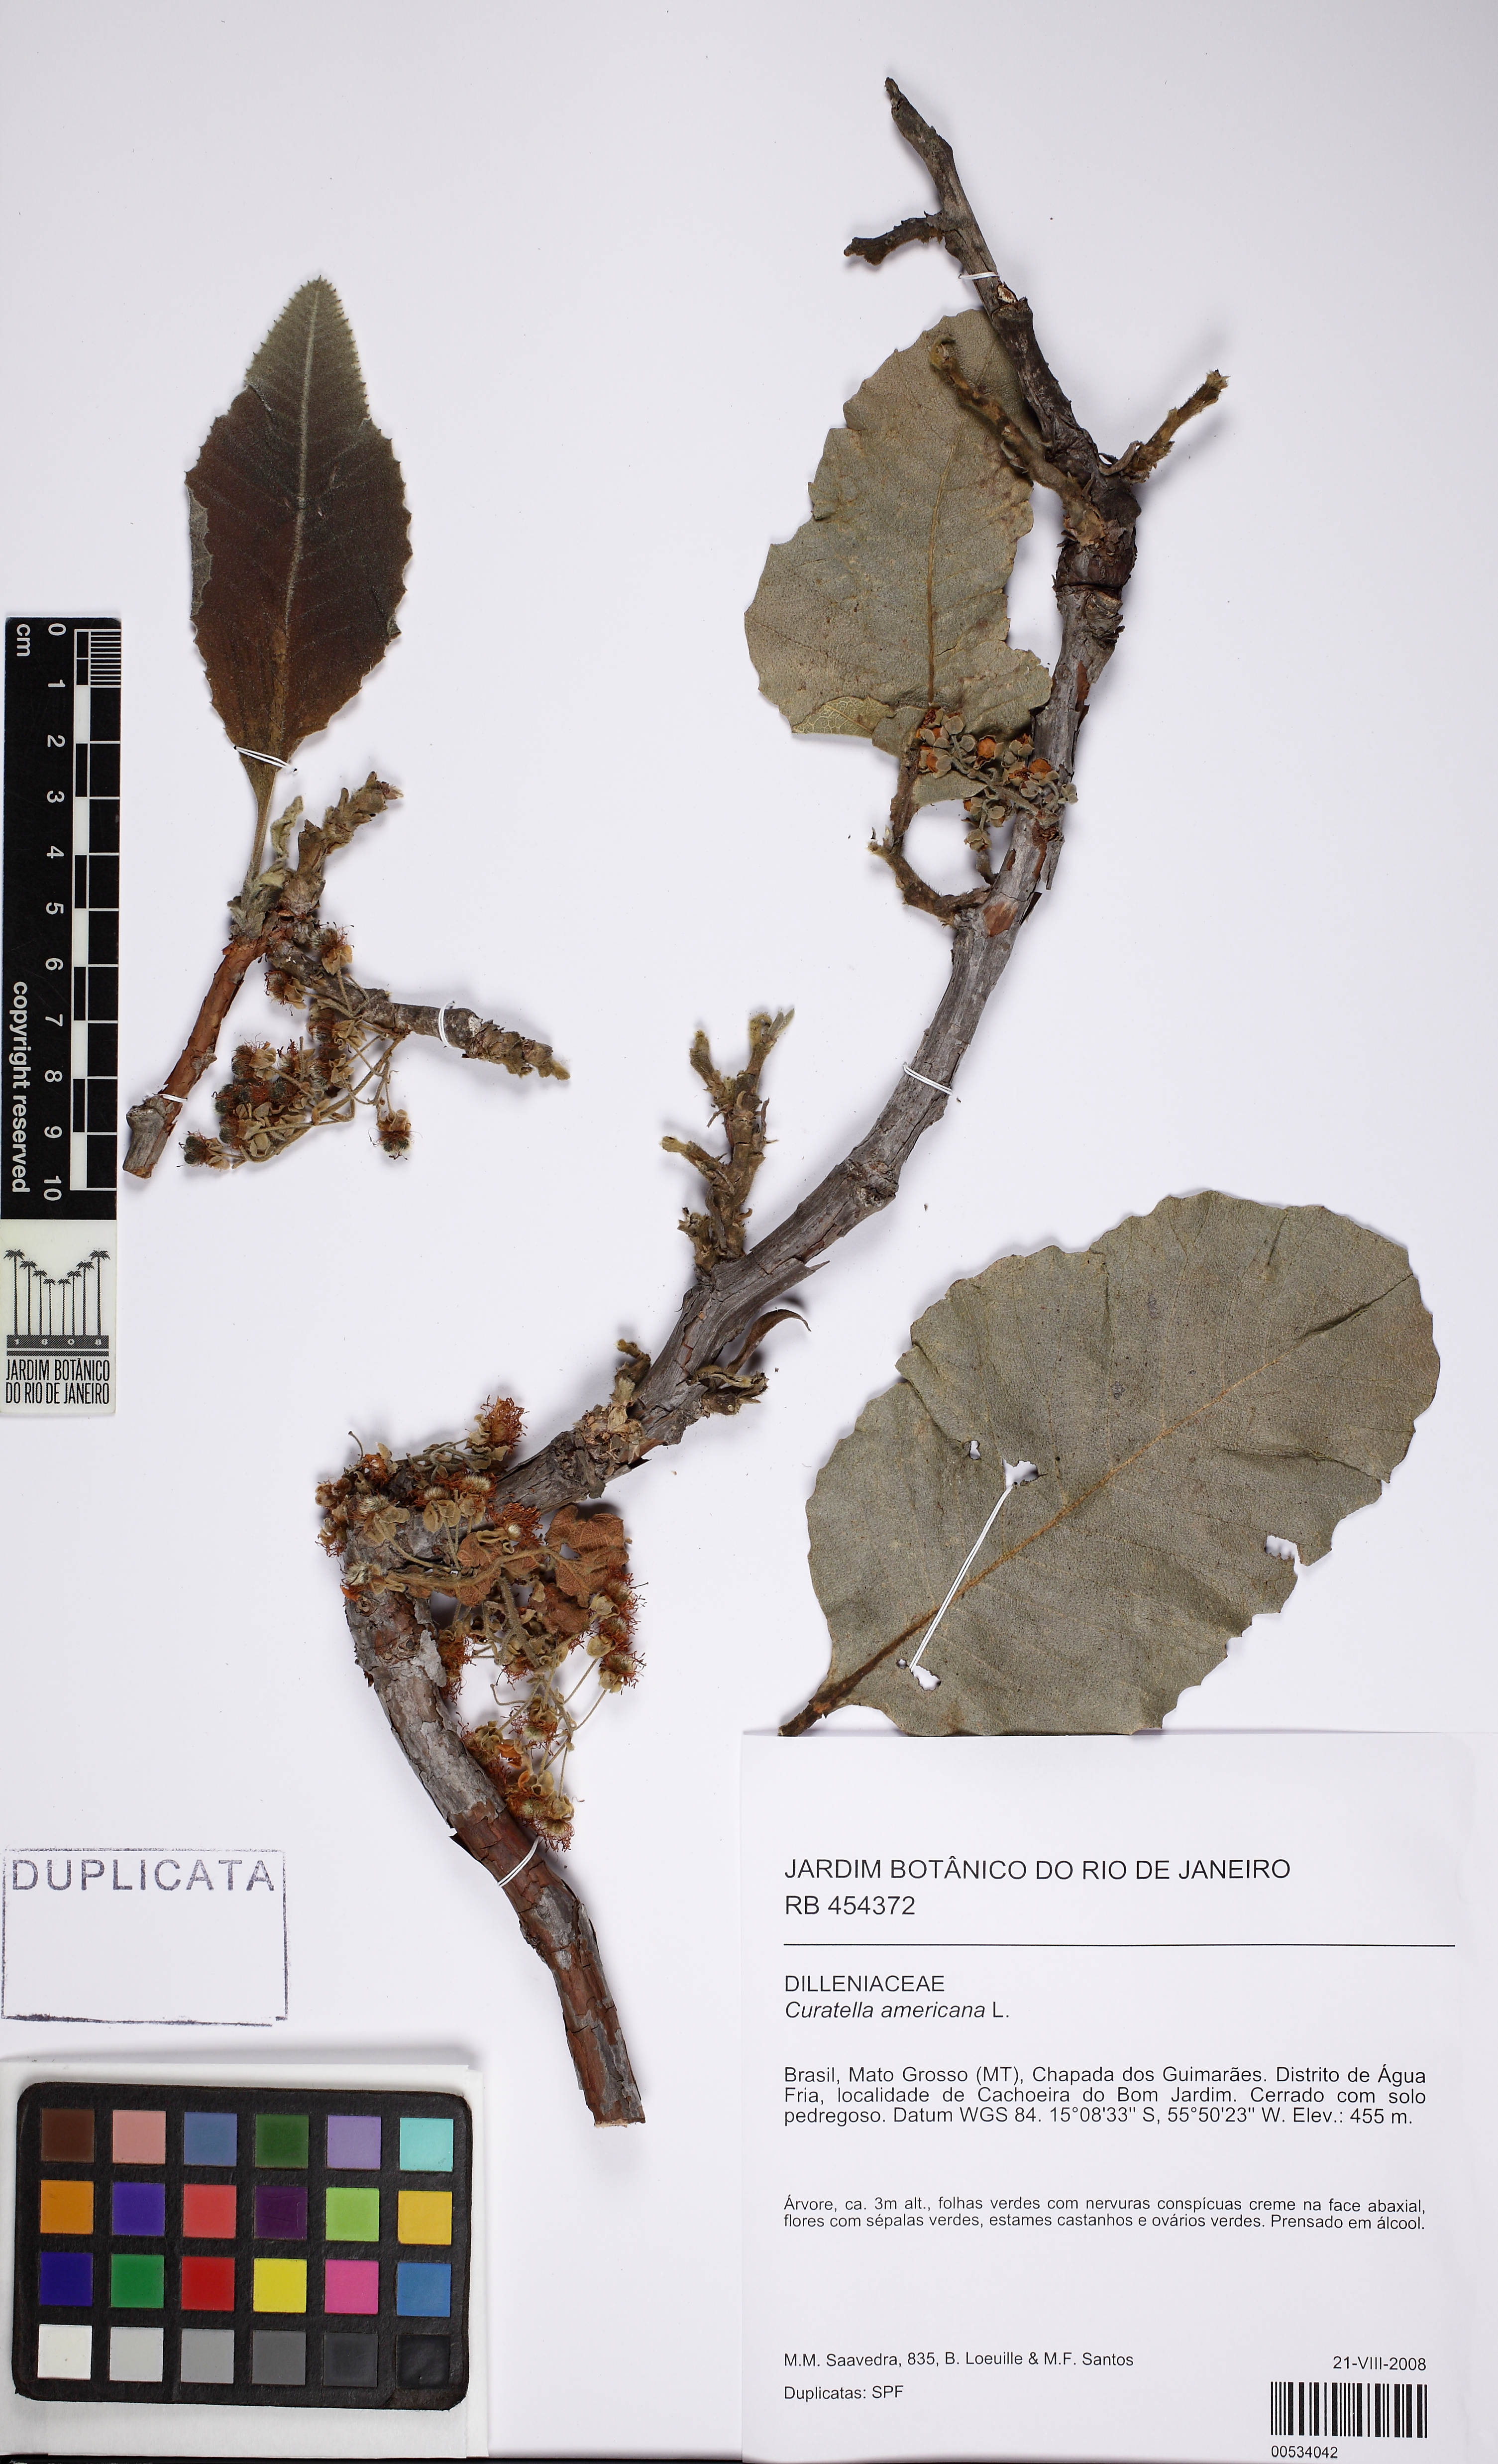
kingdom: Plantae
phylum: Tracheophyta
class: Magnoliopsida
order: Dilleniales
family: Dilleniaceae
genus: Curatella
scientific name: Curatella americana
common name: Sandpaper tree
